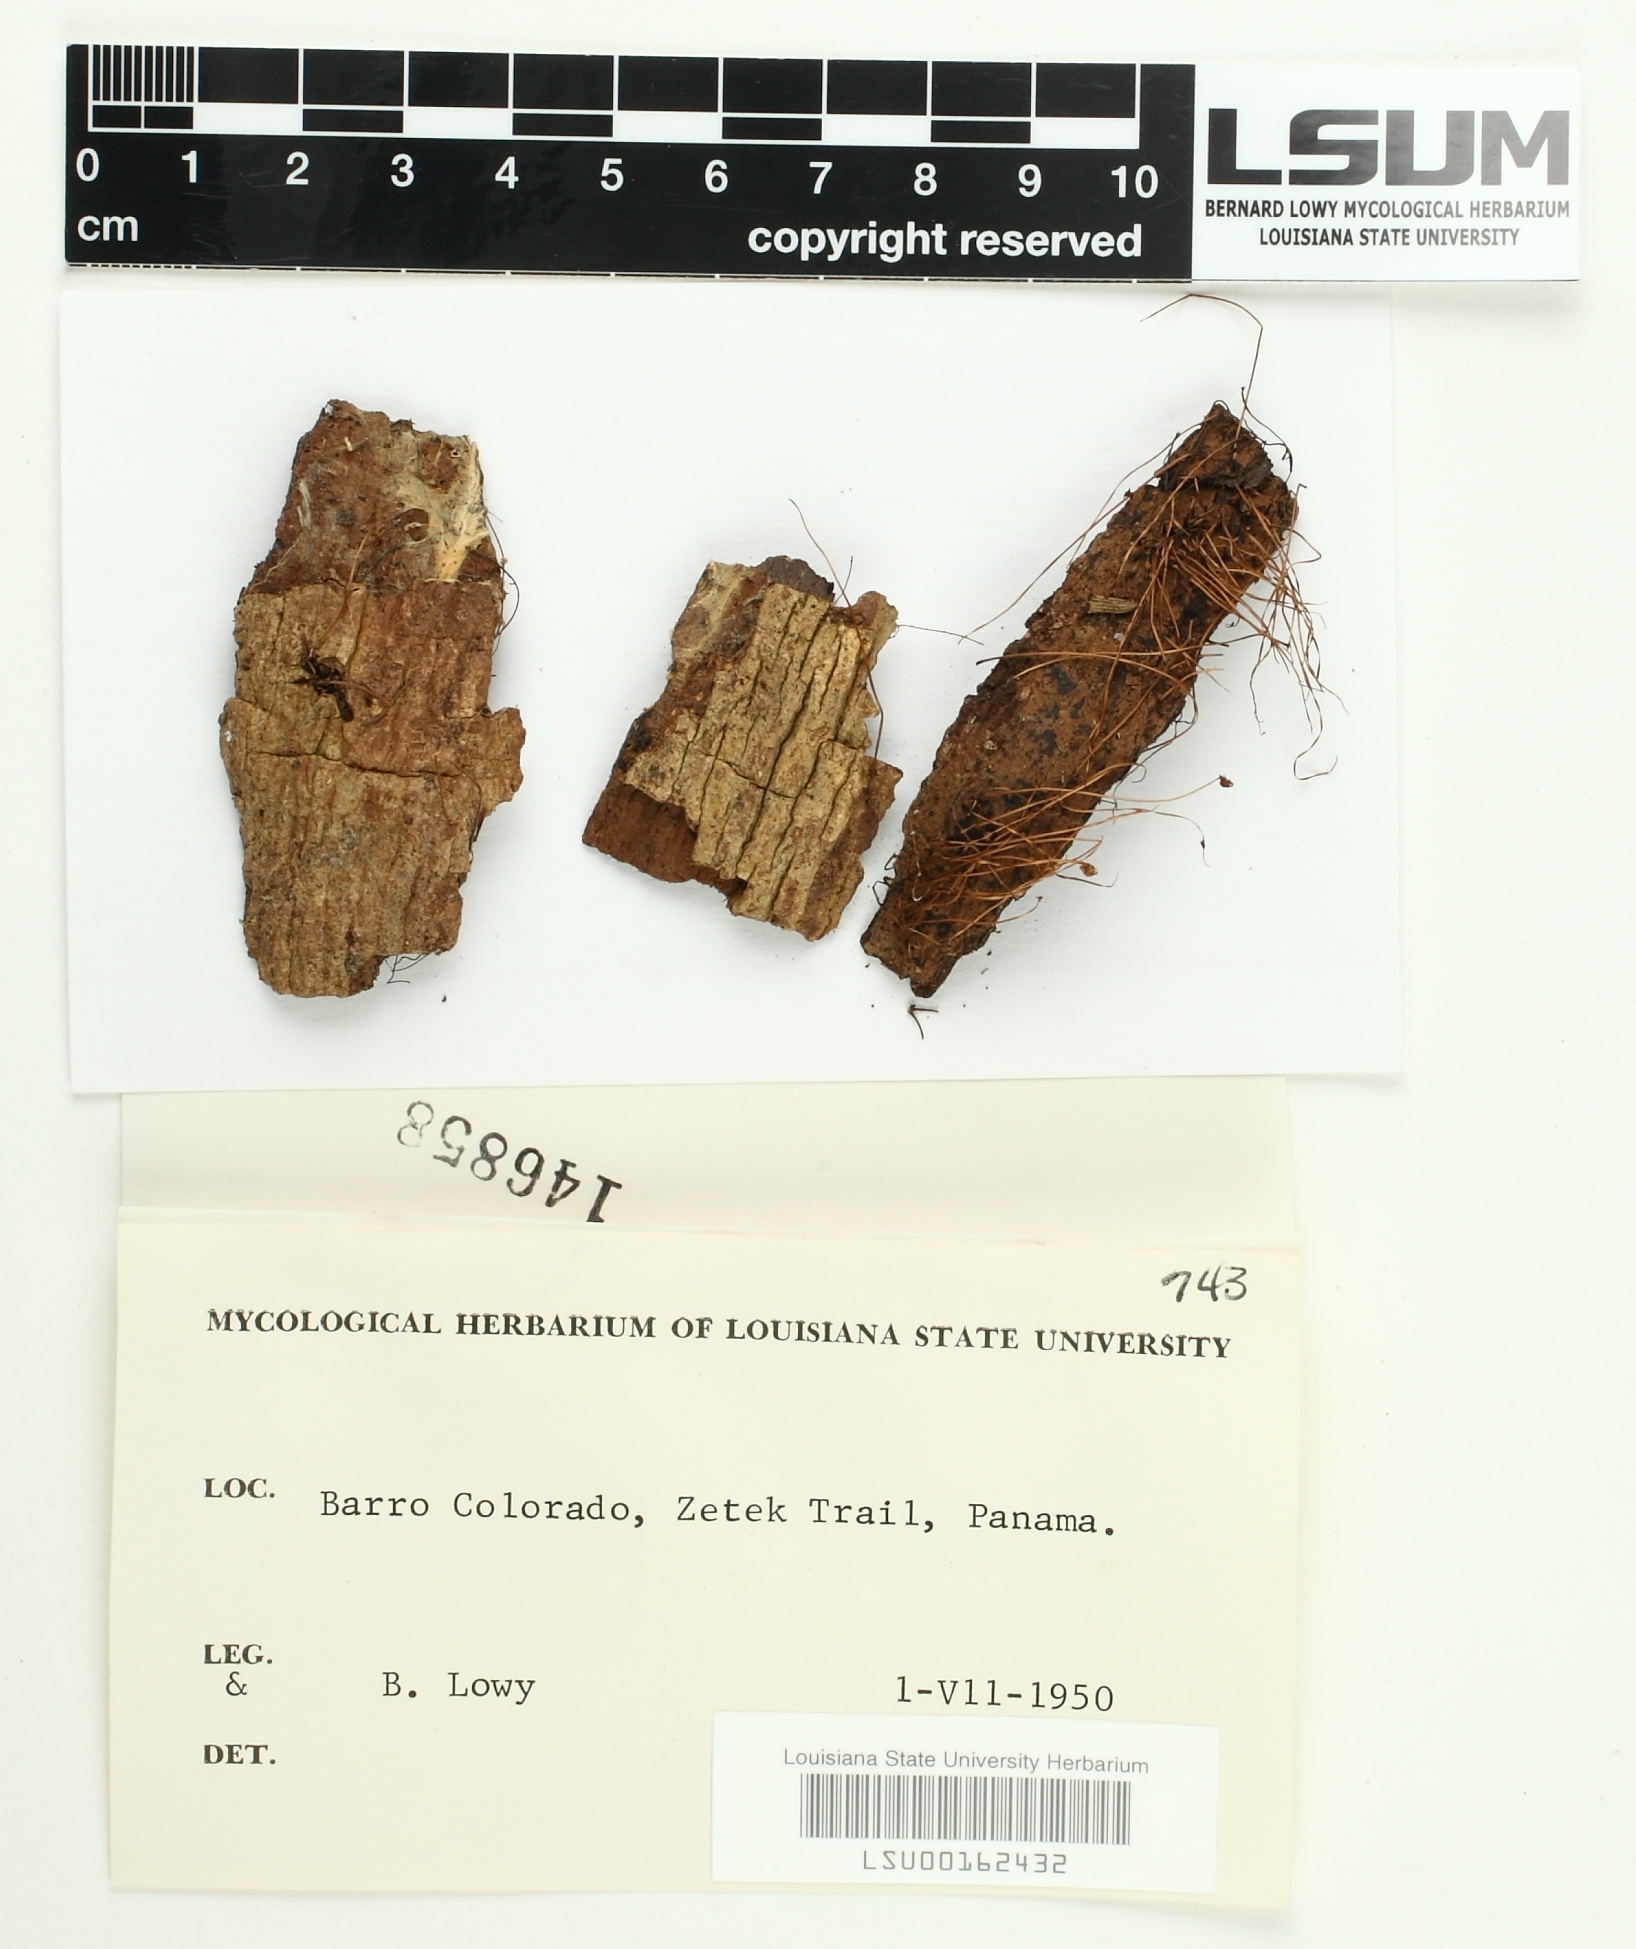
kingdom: Fungi
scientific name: Fungi
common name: Fungi
